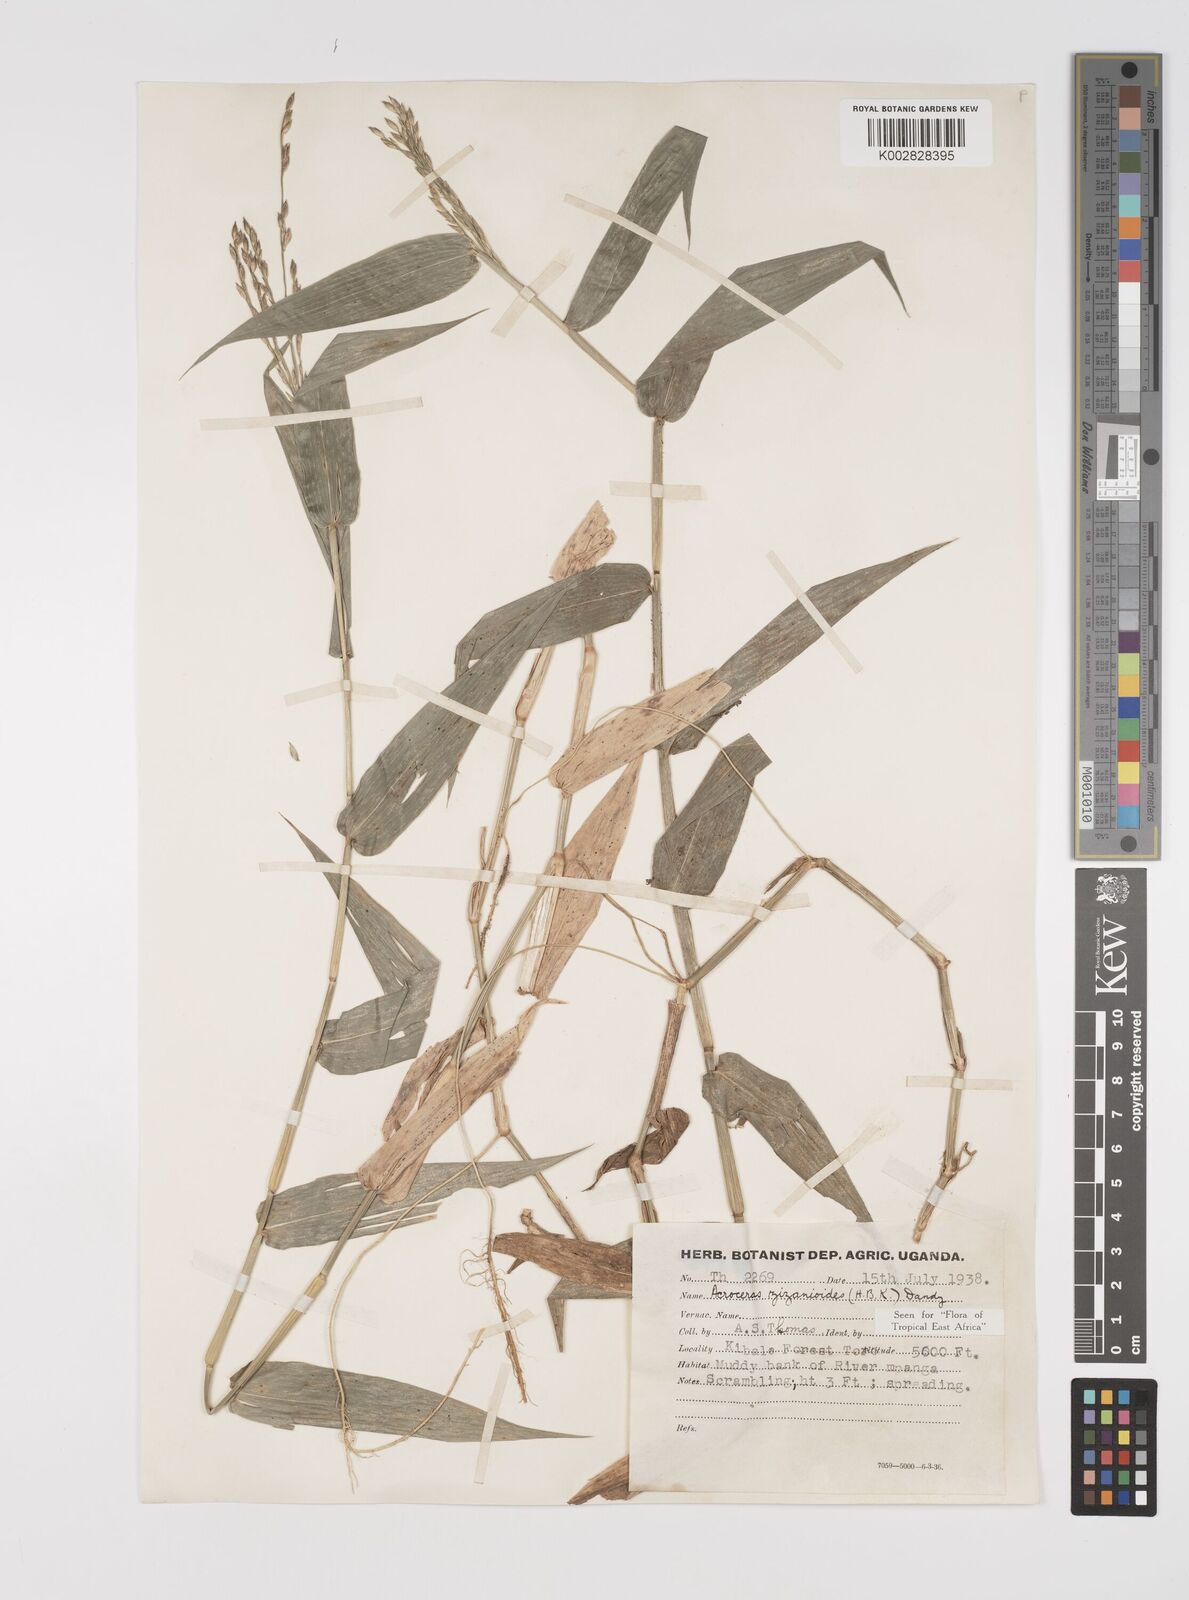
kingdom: Plantae
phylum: Tracheophyta
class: Liliopsida
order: Poales
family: Poaceae
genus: Acroceras
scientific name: Acroceras zizanioides
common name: Oat grass
